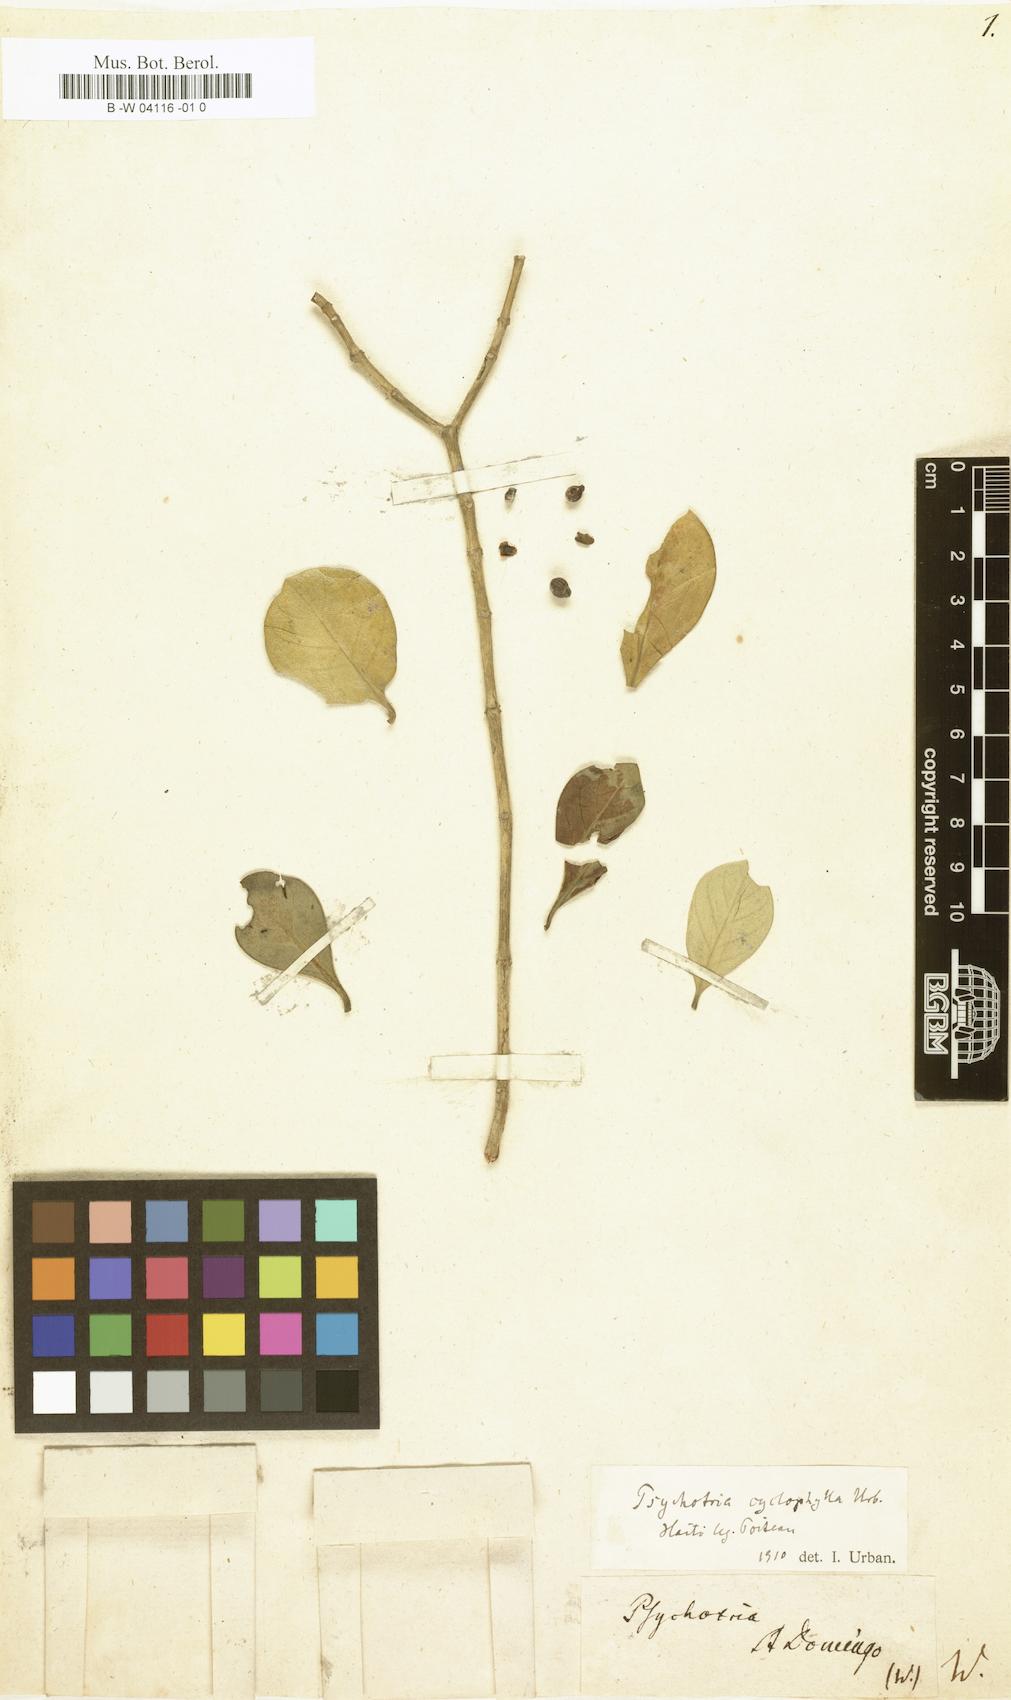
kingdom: Plantae
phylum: Tracheophyta
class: Magnoliopsida
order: Gentianales
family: Rubiaceae
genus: Psychotria
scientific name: Psychotria
